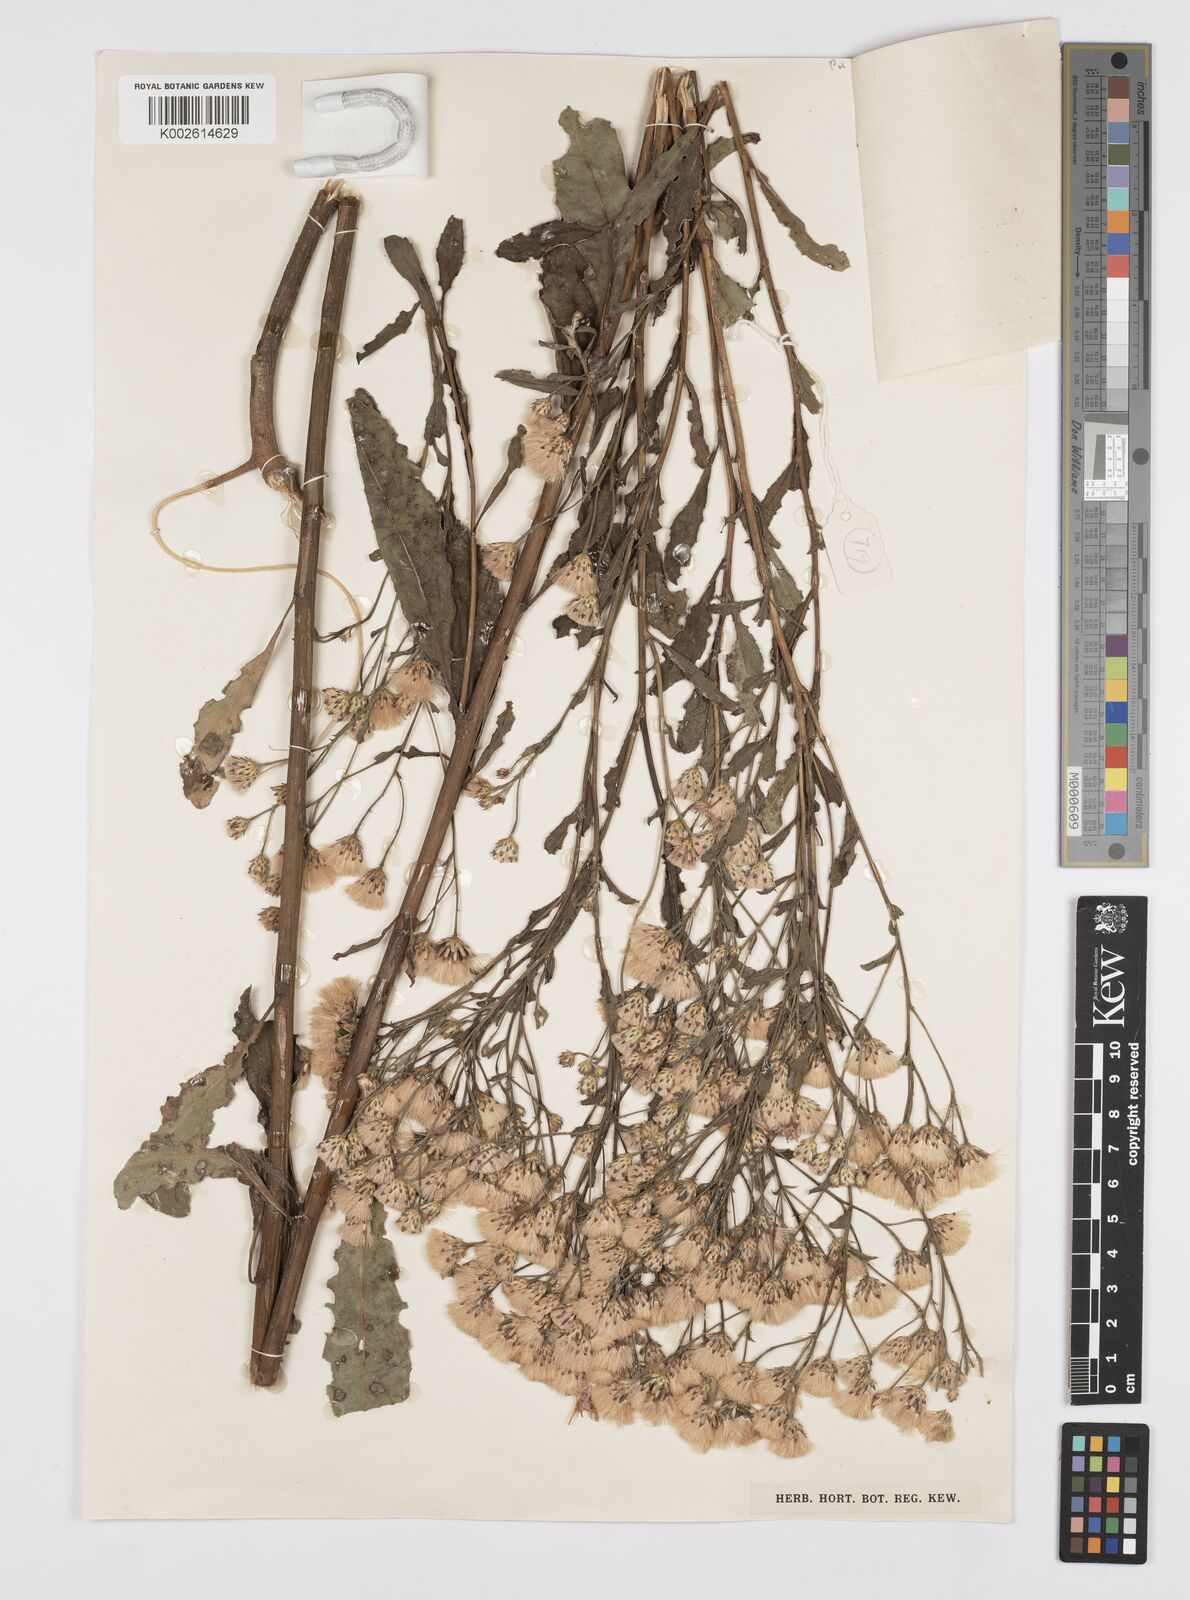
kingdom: Plantae
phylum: Tracheophyta
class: Magnoliopsida
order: Asterales
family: Asteraceae
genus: Linzia
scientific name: Linzia glabra
